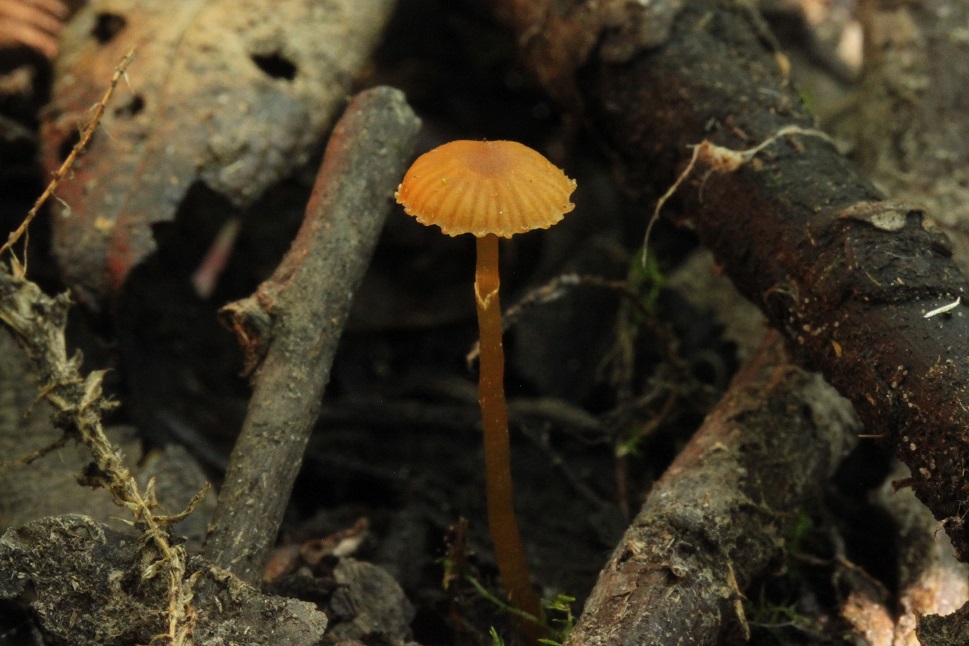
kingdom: Fungi
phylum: Basidiomycota
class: Agaricomycetes
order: Agaricales
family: Hymenogastraceae
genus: Galerina
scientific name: Galerina jaapii
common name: hvidbæltet hjelmhat
